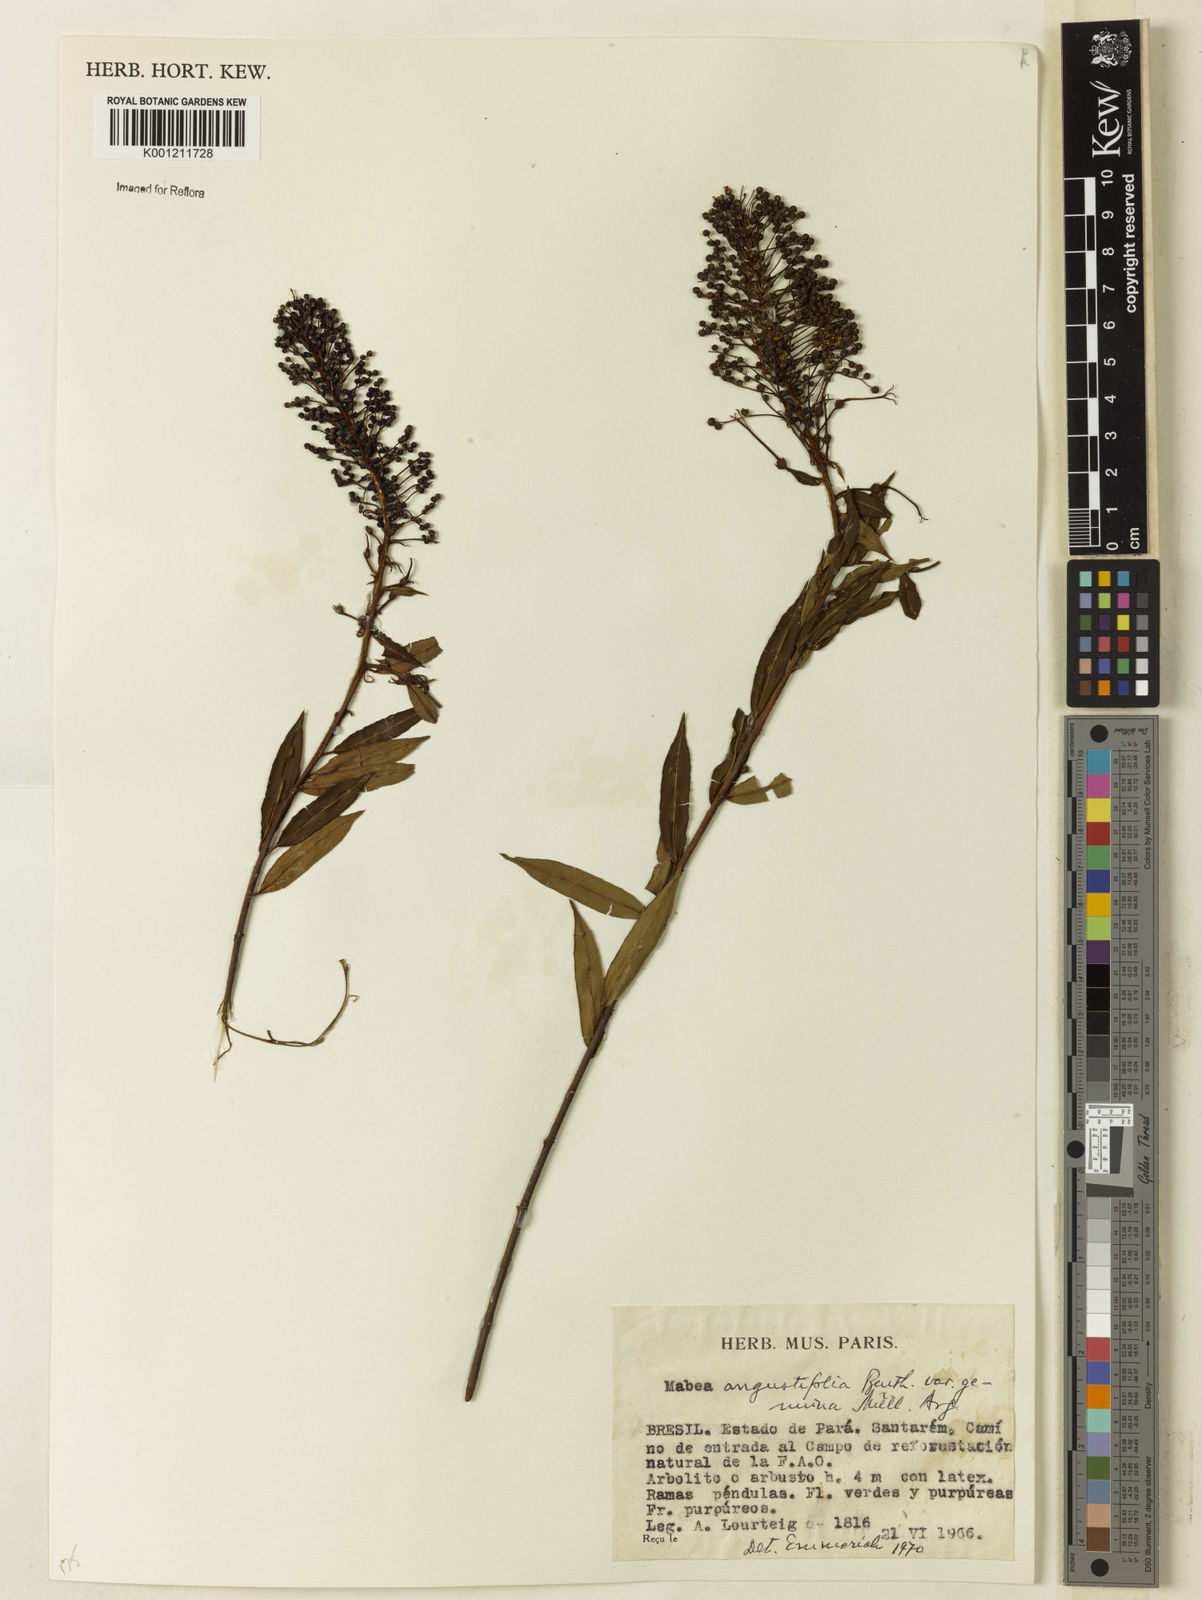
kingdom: Plantae
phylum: Tracheophyta
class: Magnoliopsida
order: Malpighiales
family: Euphorbiaceae
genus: Mabea
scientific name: Mabea angustifolia
